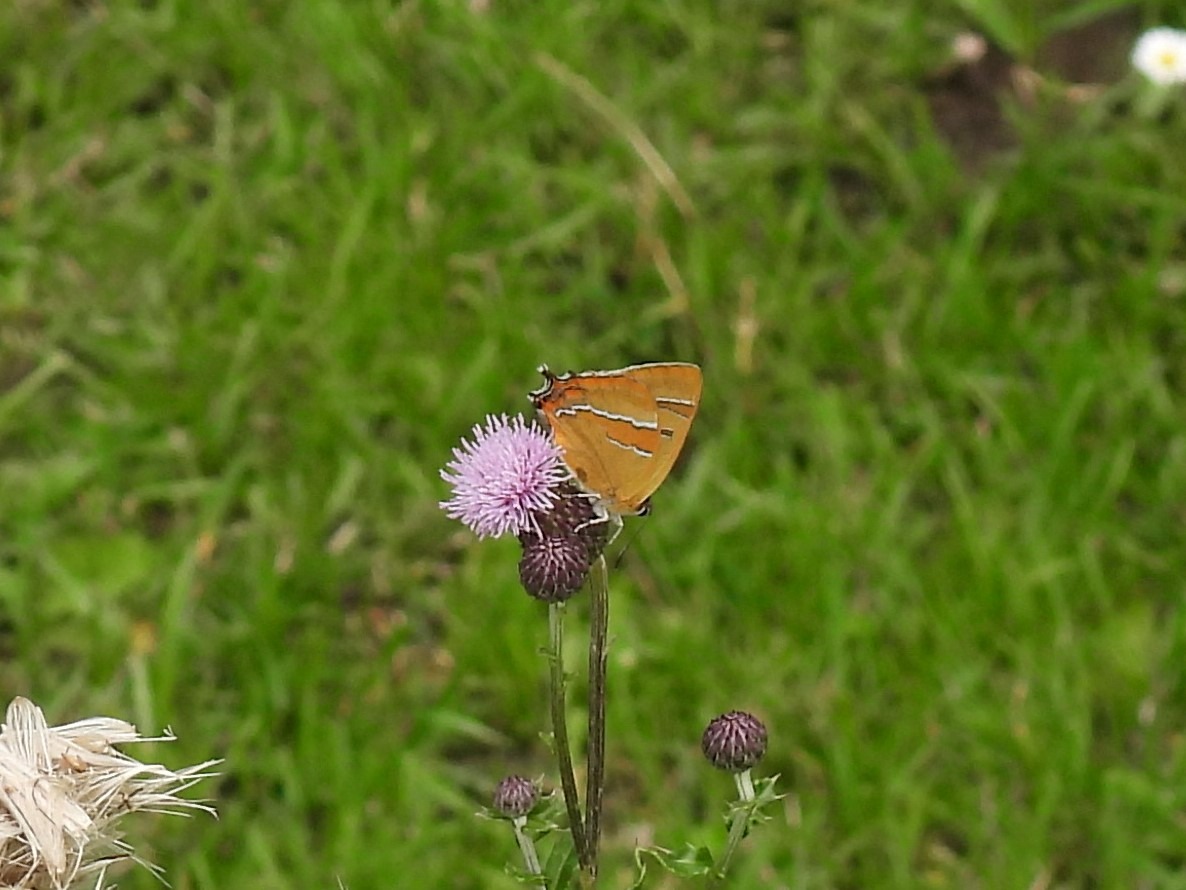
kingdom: Animalia
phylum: Arthropoda
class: Insecta
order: Lepidoptera
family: Lycaenidae
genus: Thecla
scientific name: Thecla betulae
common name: Guldhale
